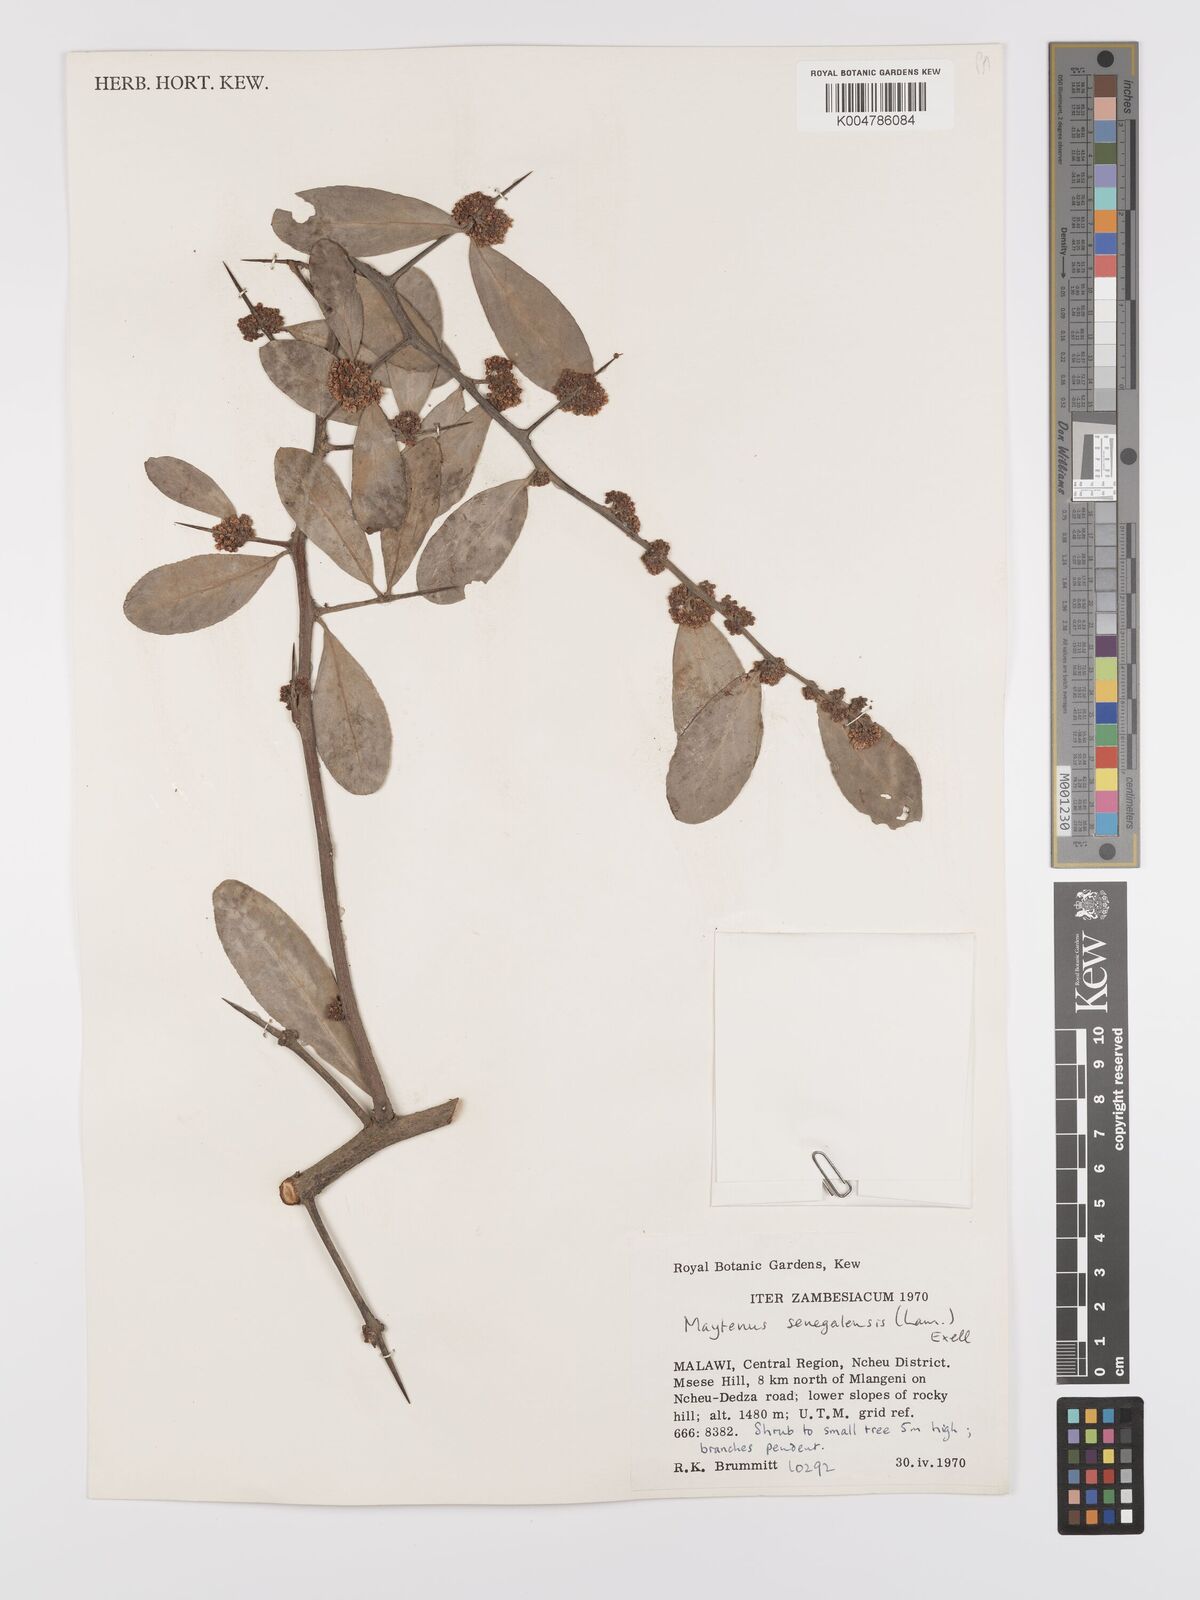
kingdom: Plantae
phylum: Tracheophyta
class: Magnoliopsida
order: Celastrales
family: Celastraceae
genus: Gymnosporia
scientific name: Gymnosporia senegalensis
